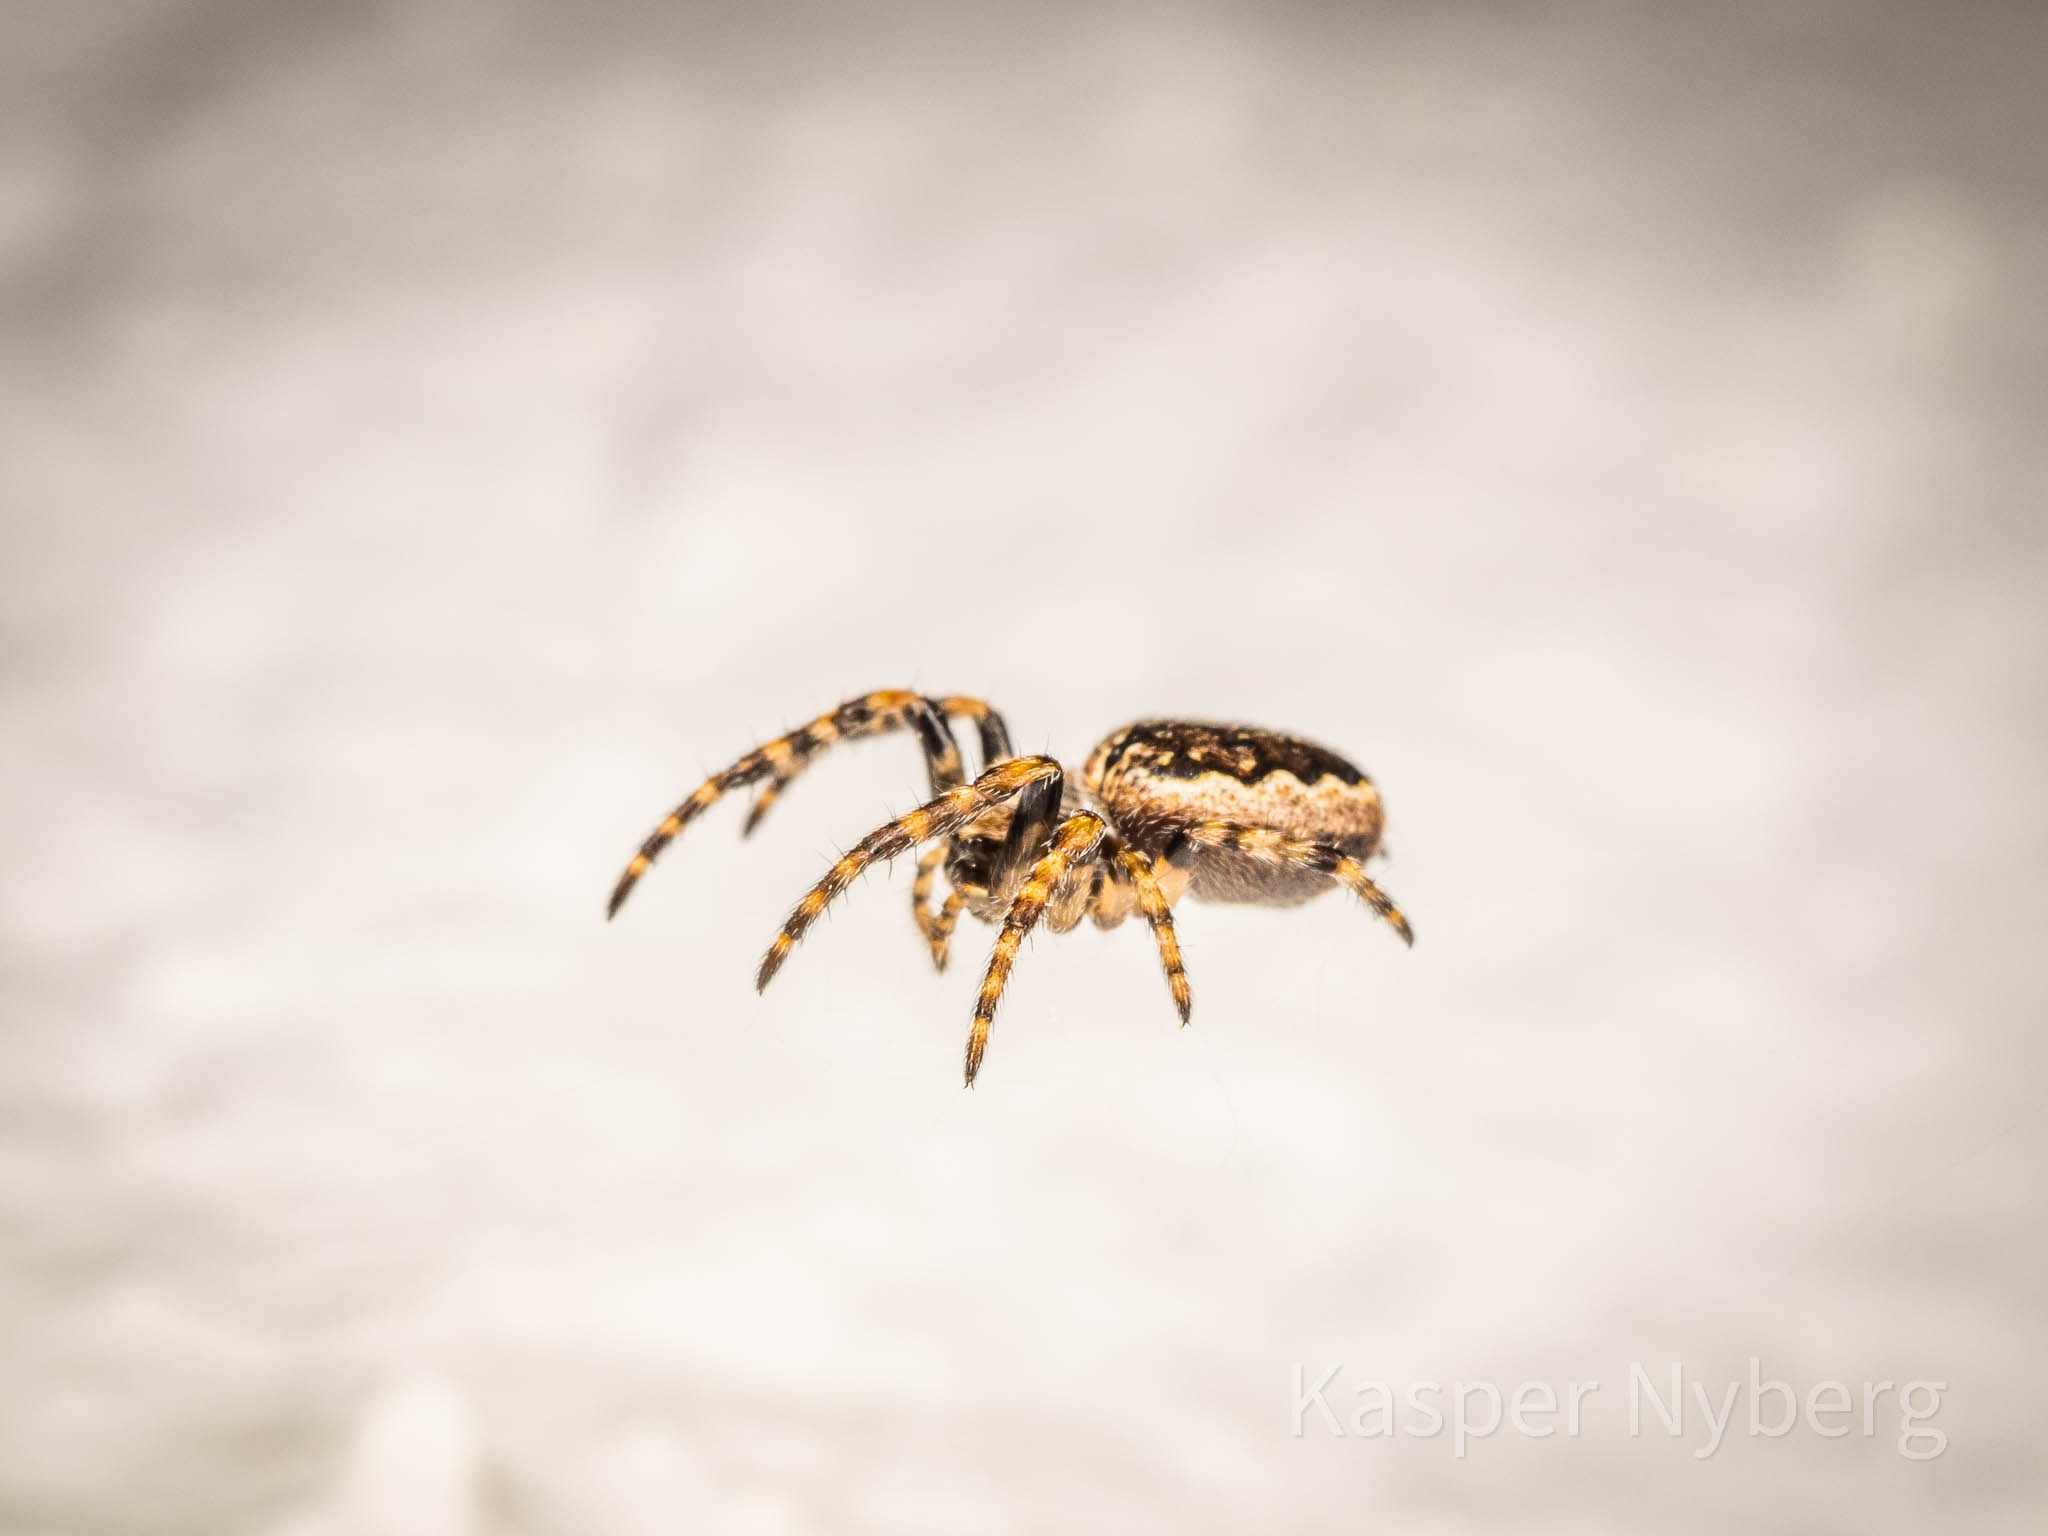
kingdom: Animalia
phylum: Arthropoda
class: Arachnida
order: Araneae
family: Araneidae
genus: Nuctenea
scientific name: Nuctenea umbratica
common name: Flad hjulspinder
